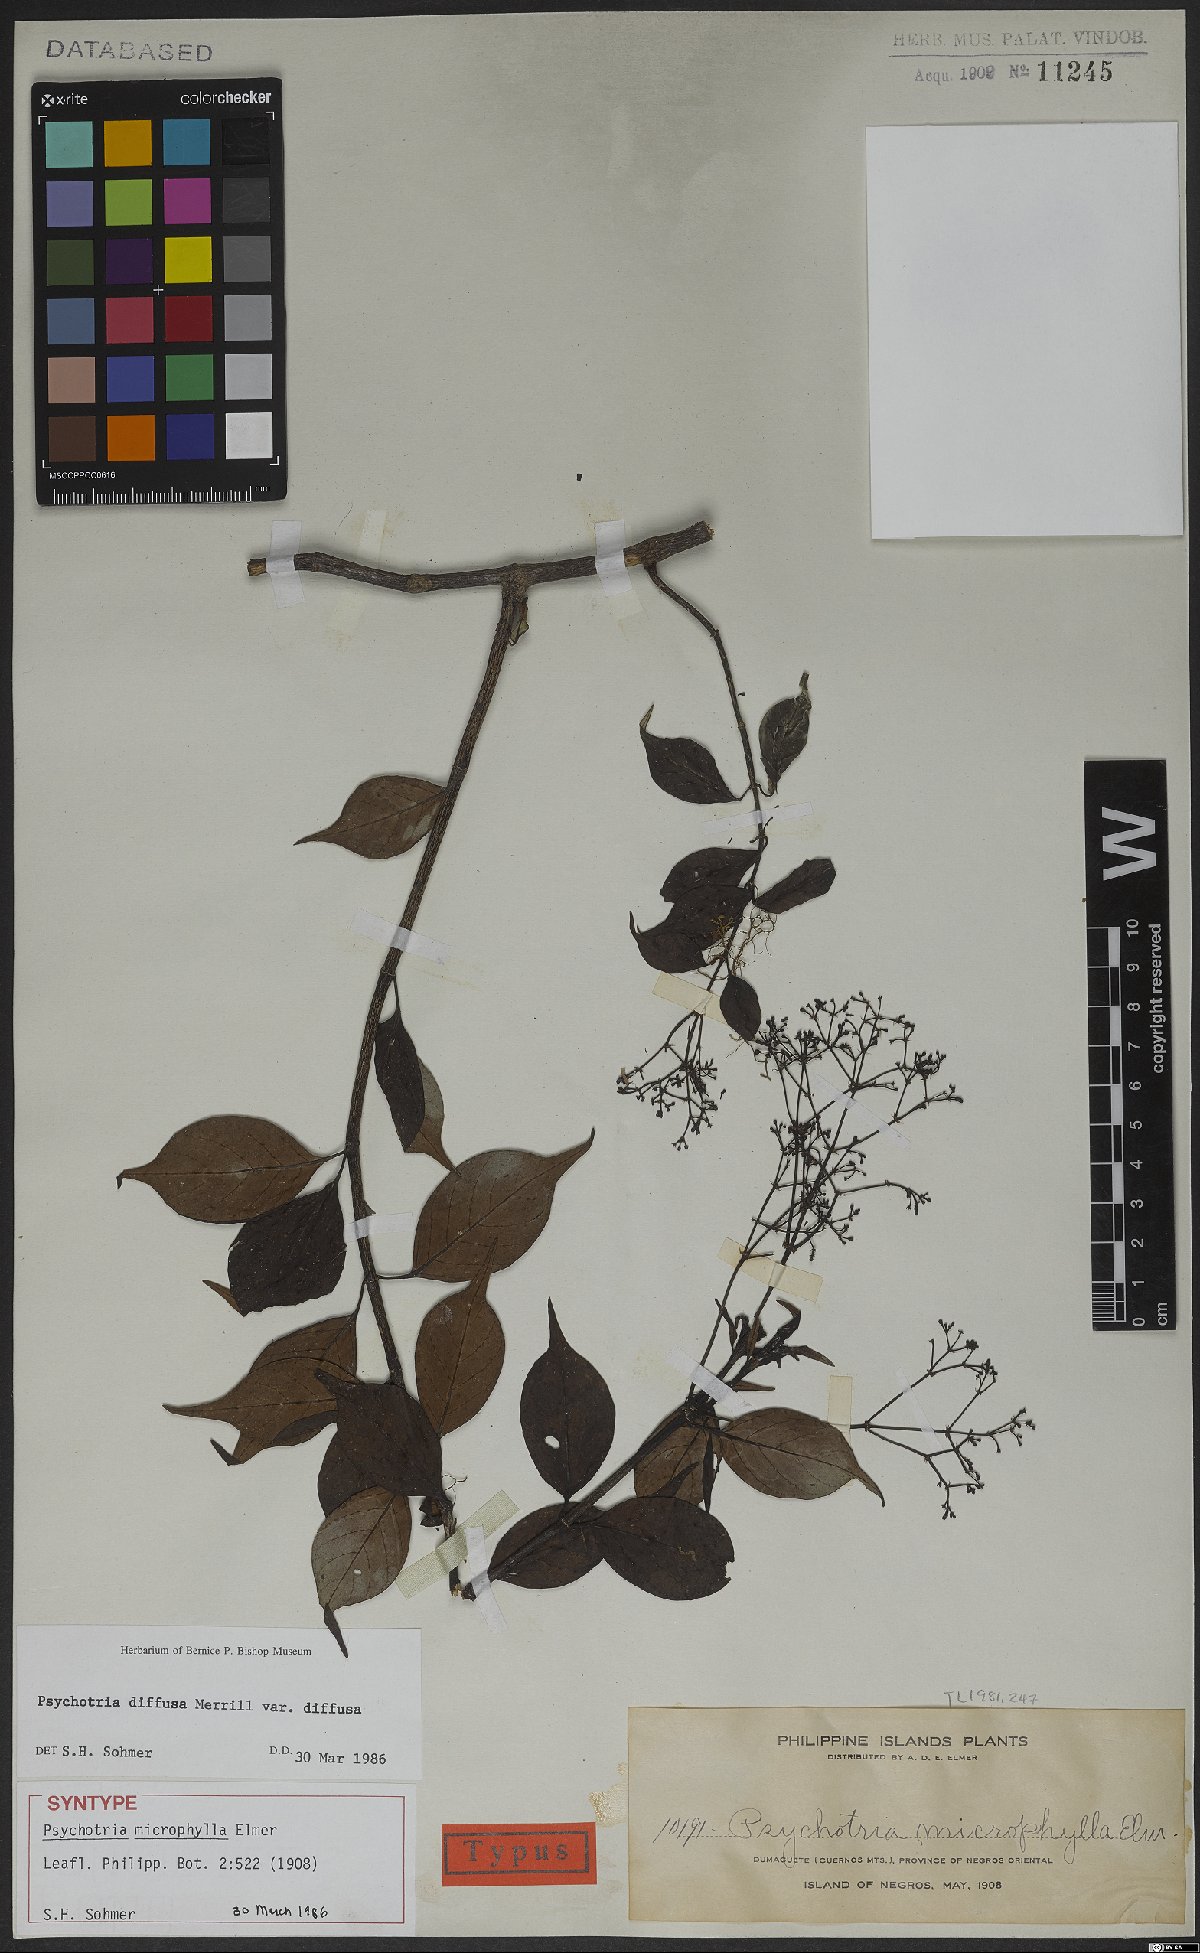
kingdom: Plantae
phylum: Tracheophyta
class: Magnoliopsida
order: Gentianales
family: Rubiaceae
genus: Psychotria
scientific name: Psychotria diffusa
